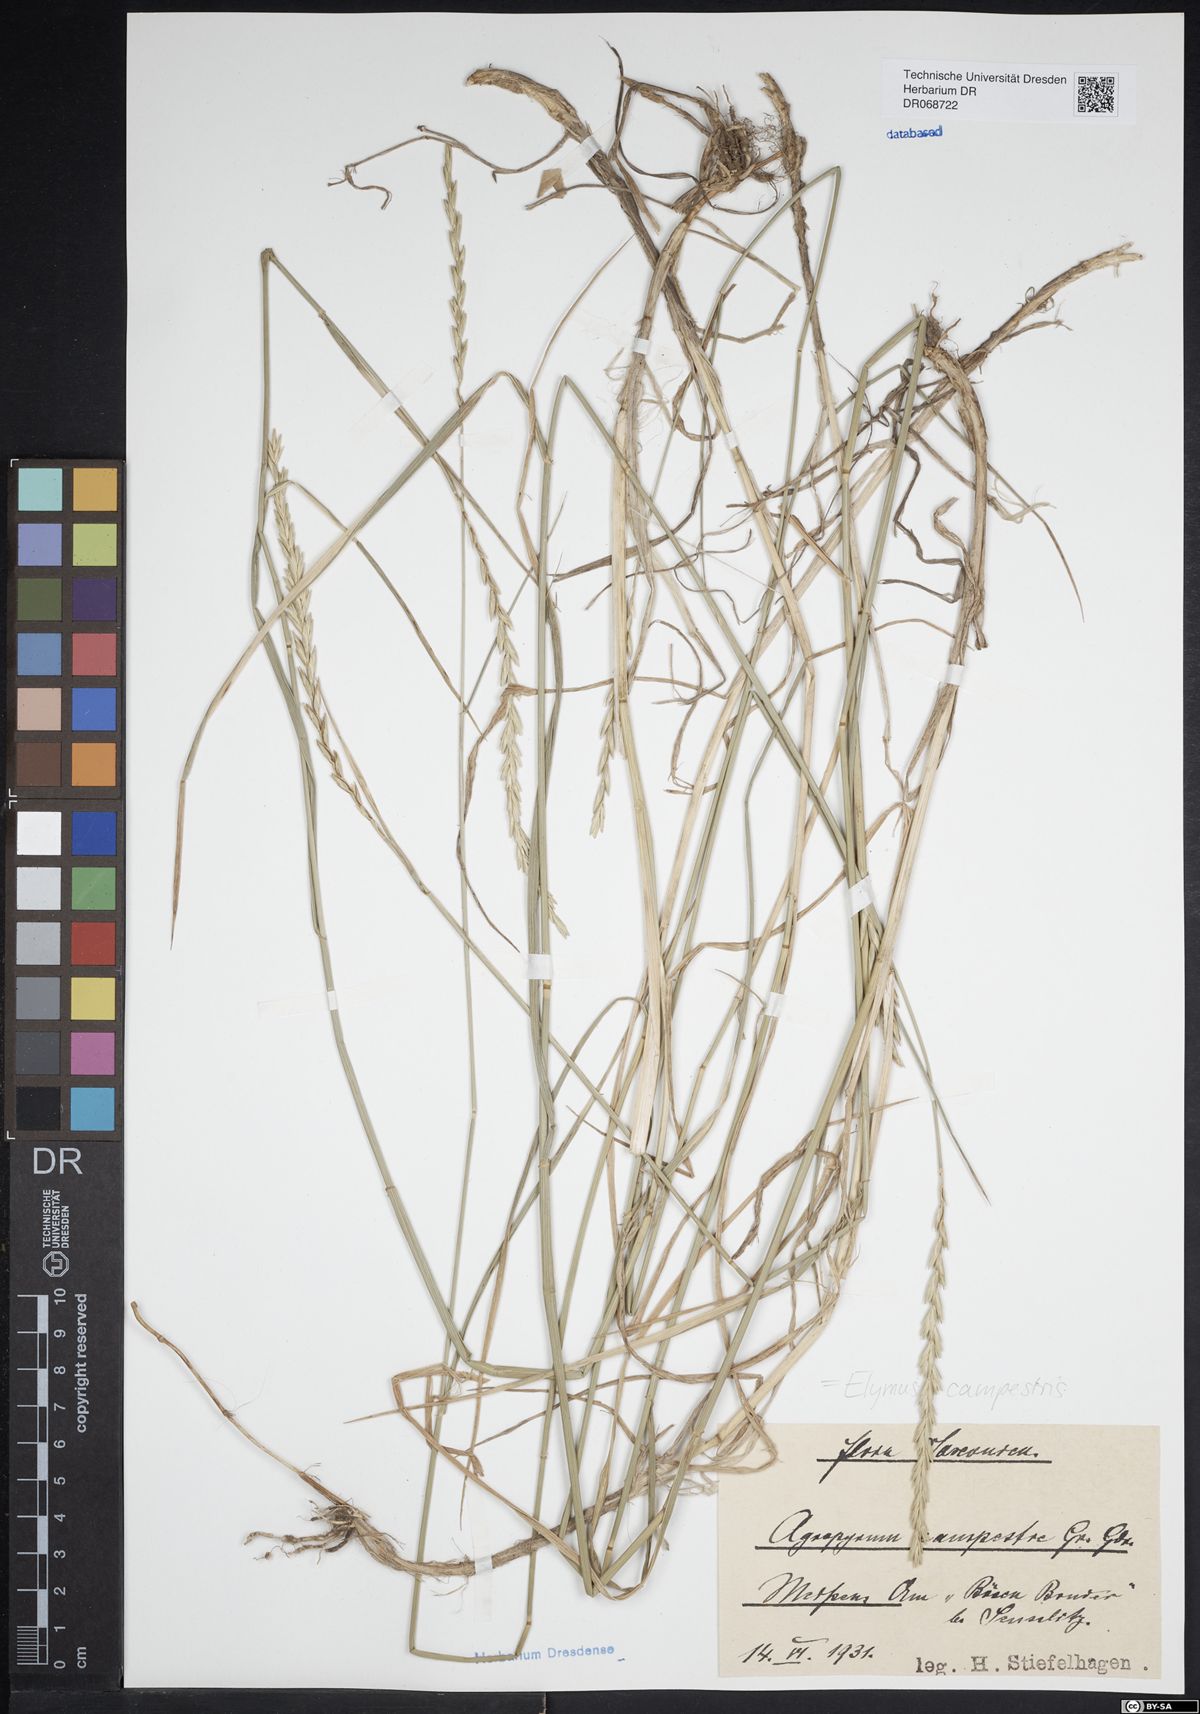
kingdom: Plantae
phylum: Tracheophyta
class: Liliopsida
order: Poales
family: Poaceae
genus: Elymus
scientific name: Elymus pungens
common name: Sea couch
